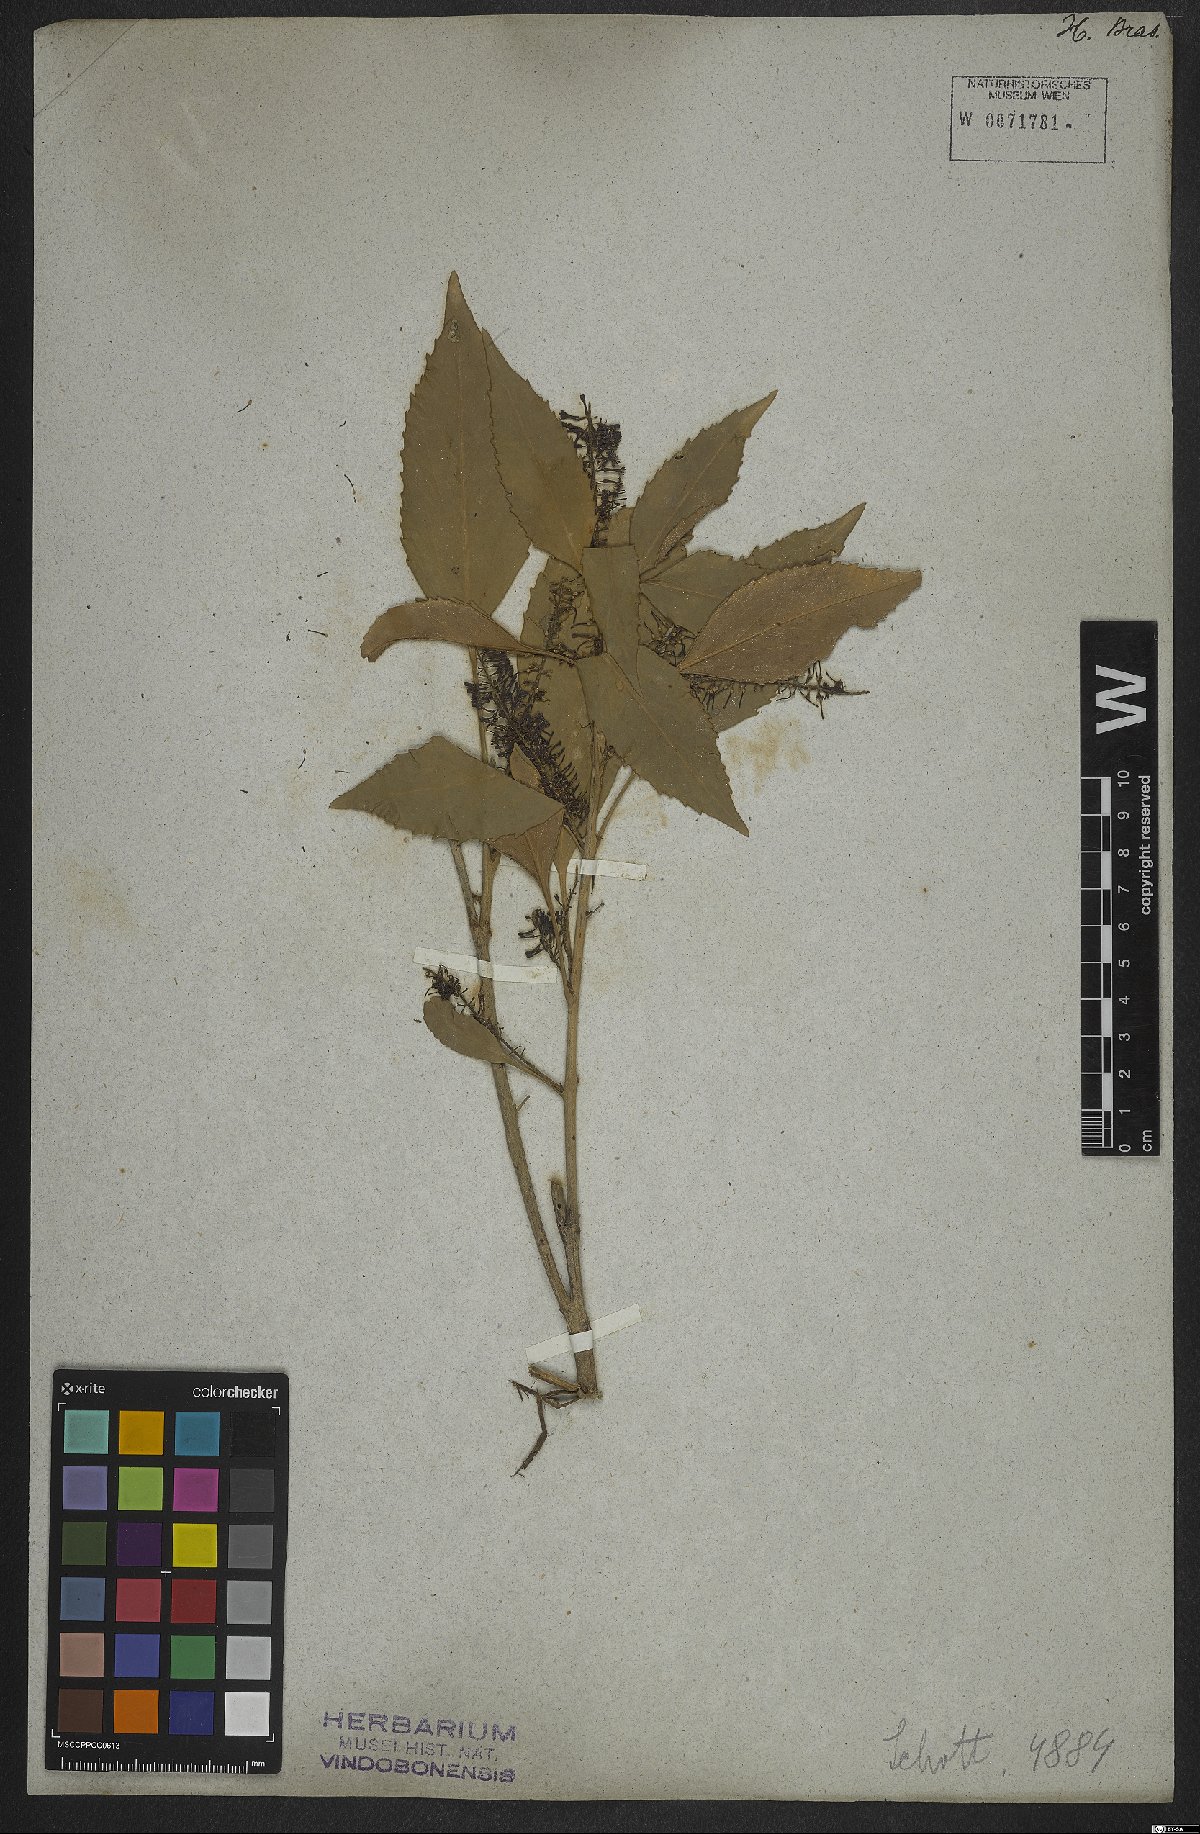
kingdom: Plantae
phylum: Tracheophyta
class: Magnoliopsida
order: Proteales
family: Proteaceae
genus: Roupala
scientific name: Roupala longepetiolata
